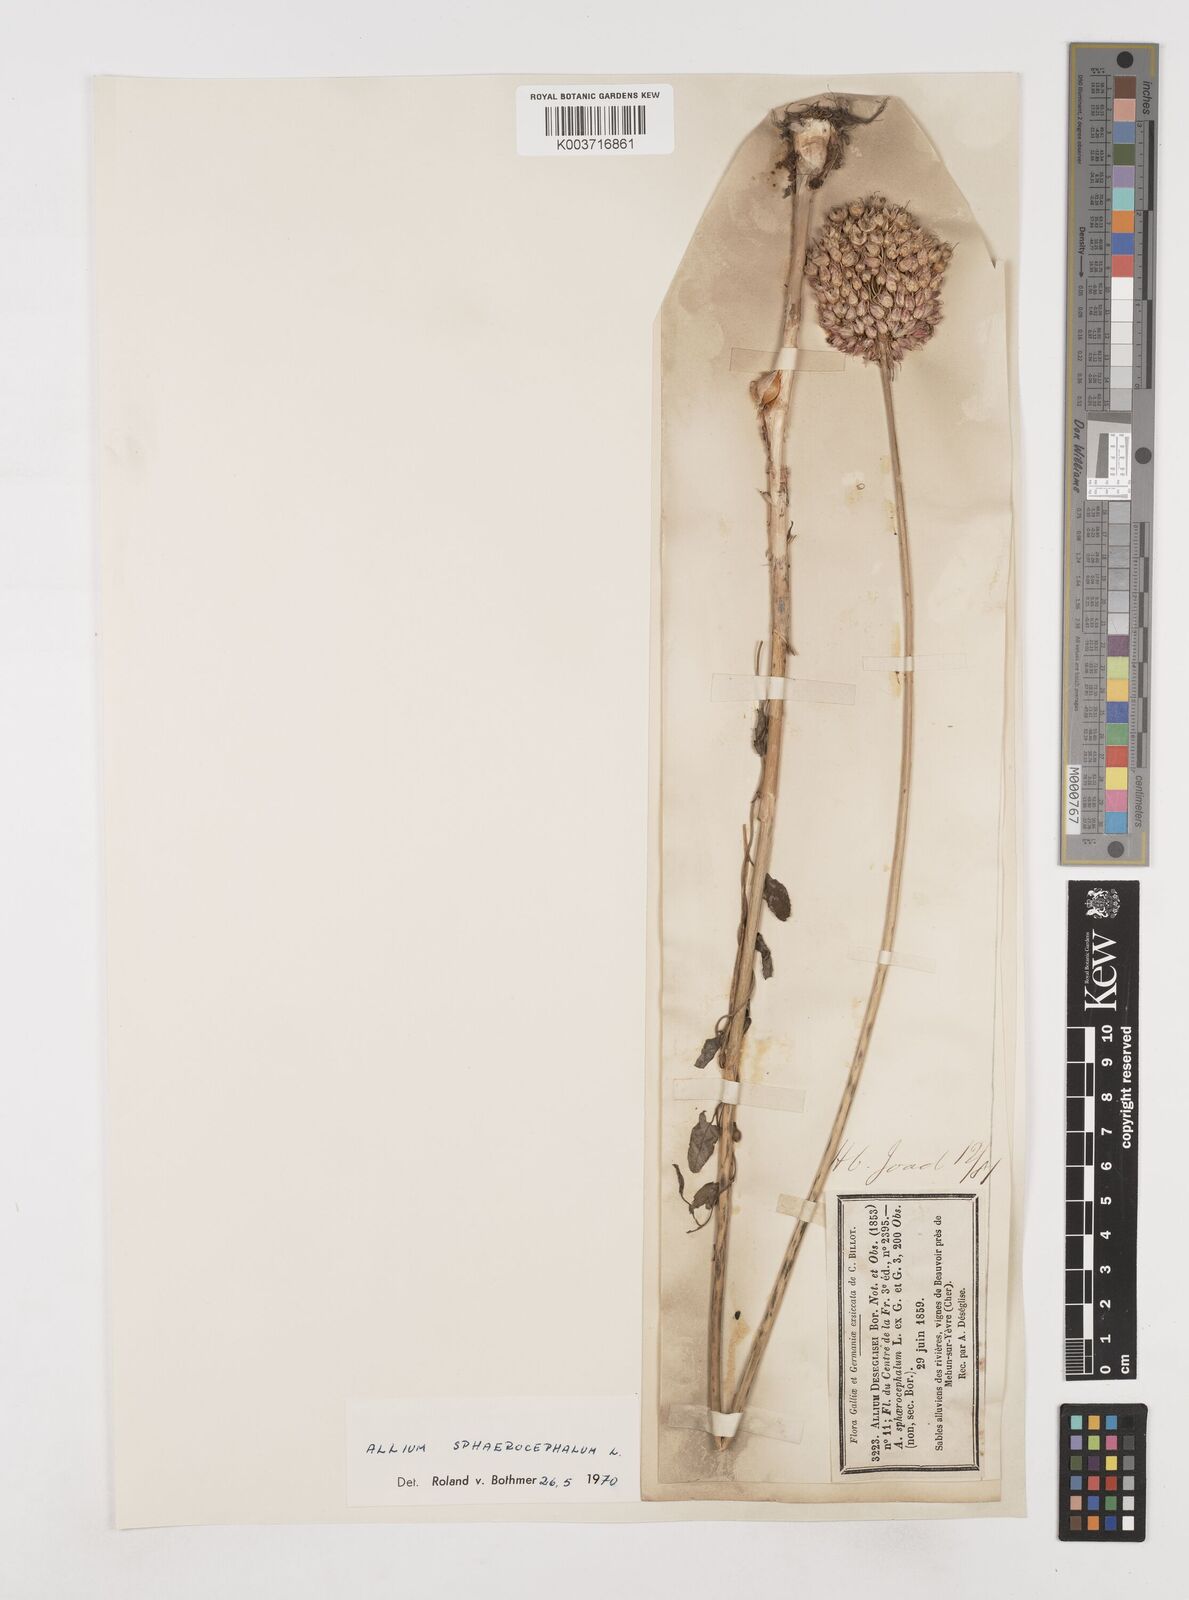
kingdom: Plantae
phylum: Tracheophyta
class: Liliopsida
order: Asparagales
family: Amaryllidaceae
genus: Allium
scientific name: Allium sphaerocephalon
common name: Round-headed leek
